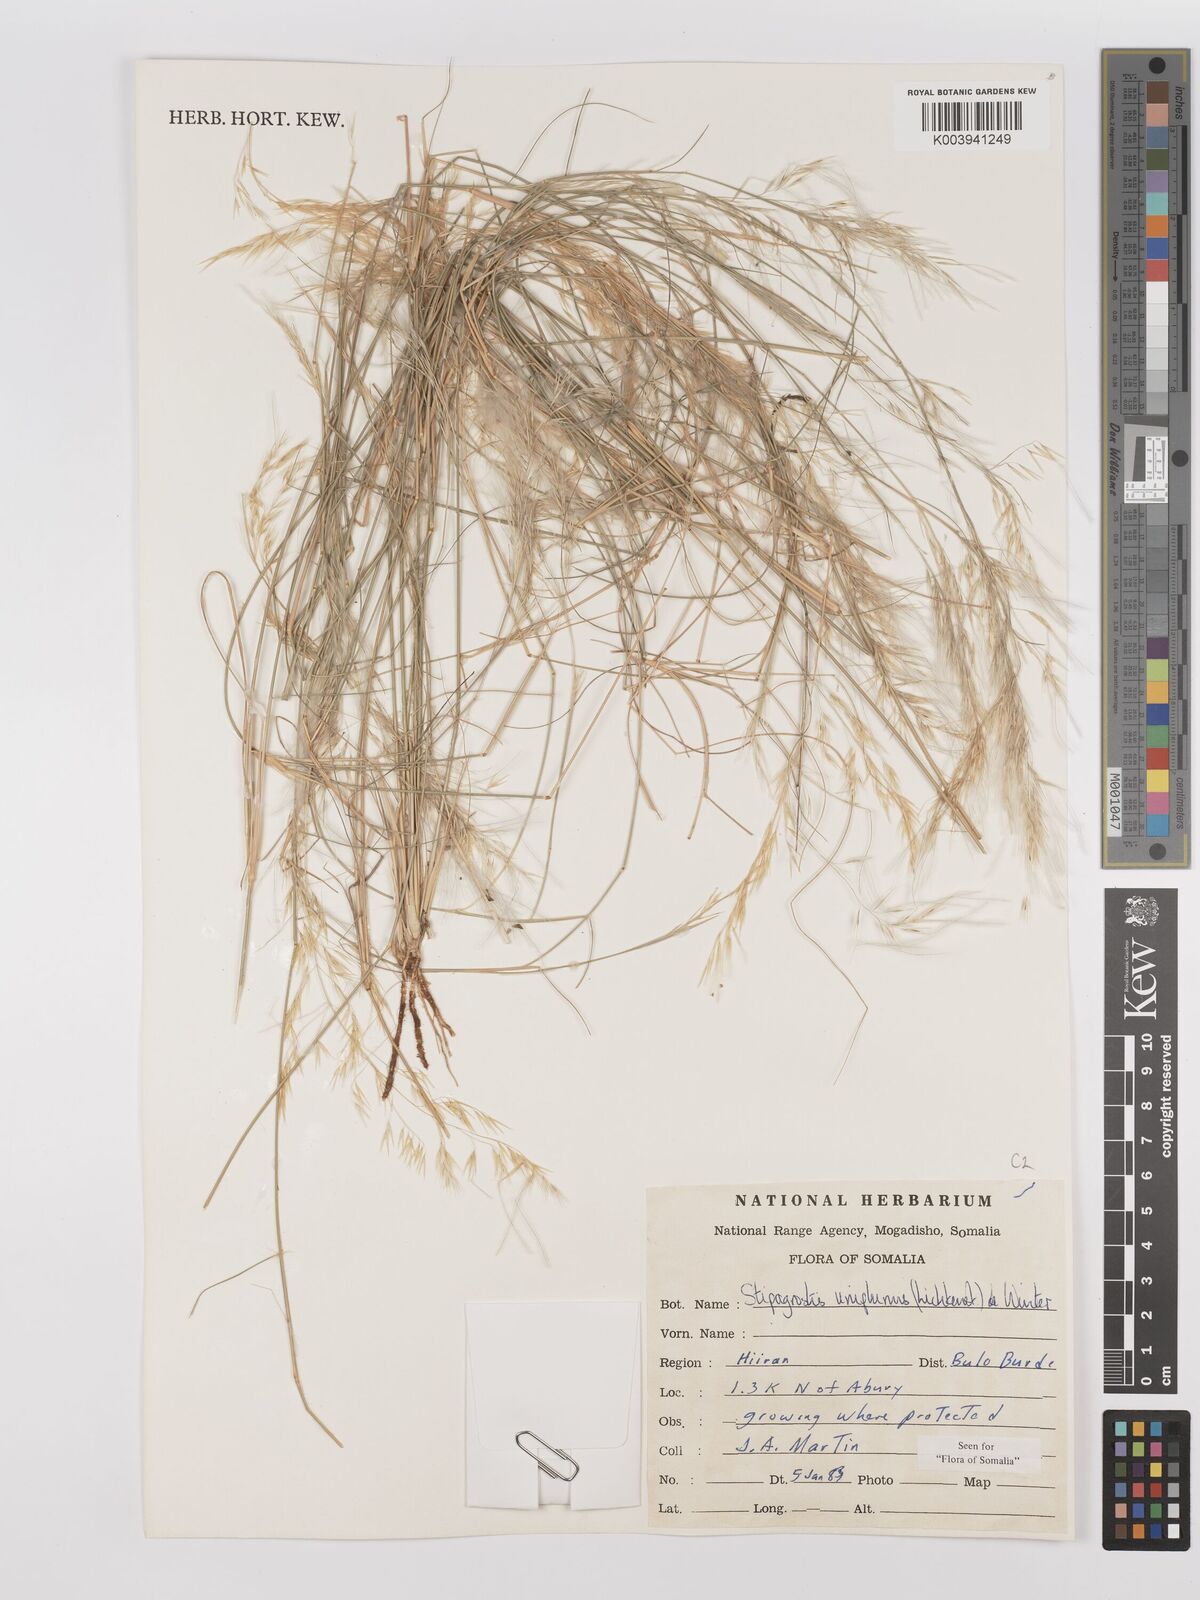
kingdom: Plantae
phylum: Tracheophyta
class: Liliopsida
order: Poales
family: Poaceae
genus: Stipagrostis
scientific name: Stipagrostis uniplumis
